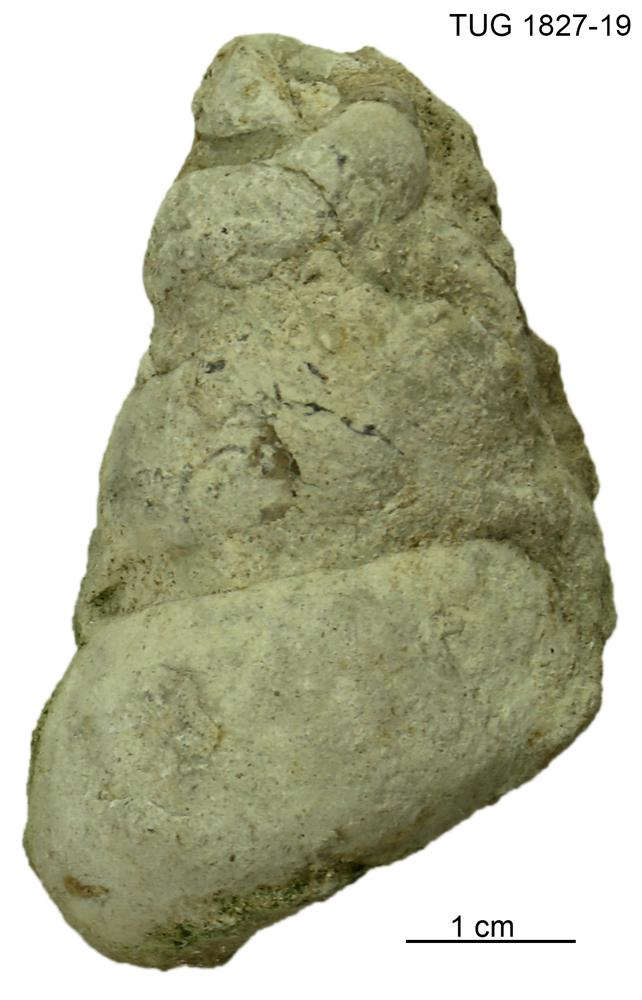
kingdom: Animalia
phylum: Mollusca
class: Gastropoda
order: Pleurotomariida
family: Murchisoniidae
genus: Hormotoma
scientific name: Hormotoma
